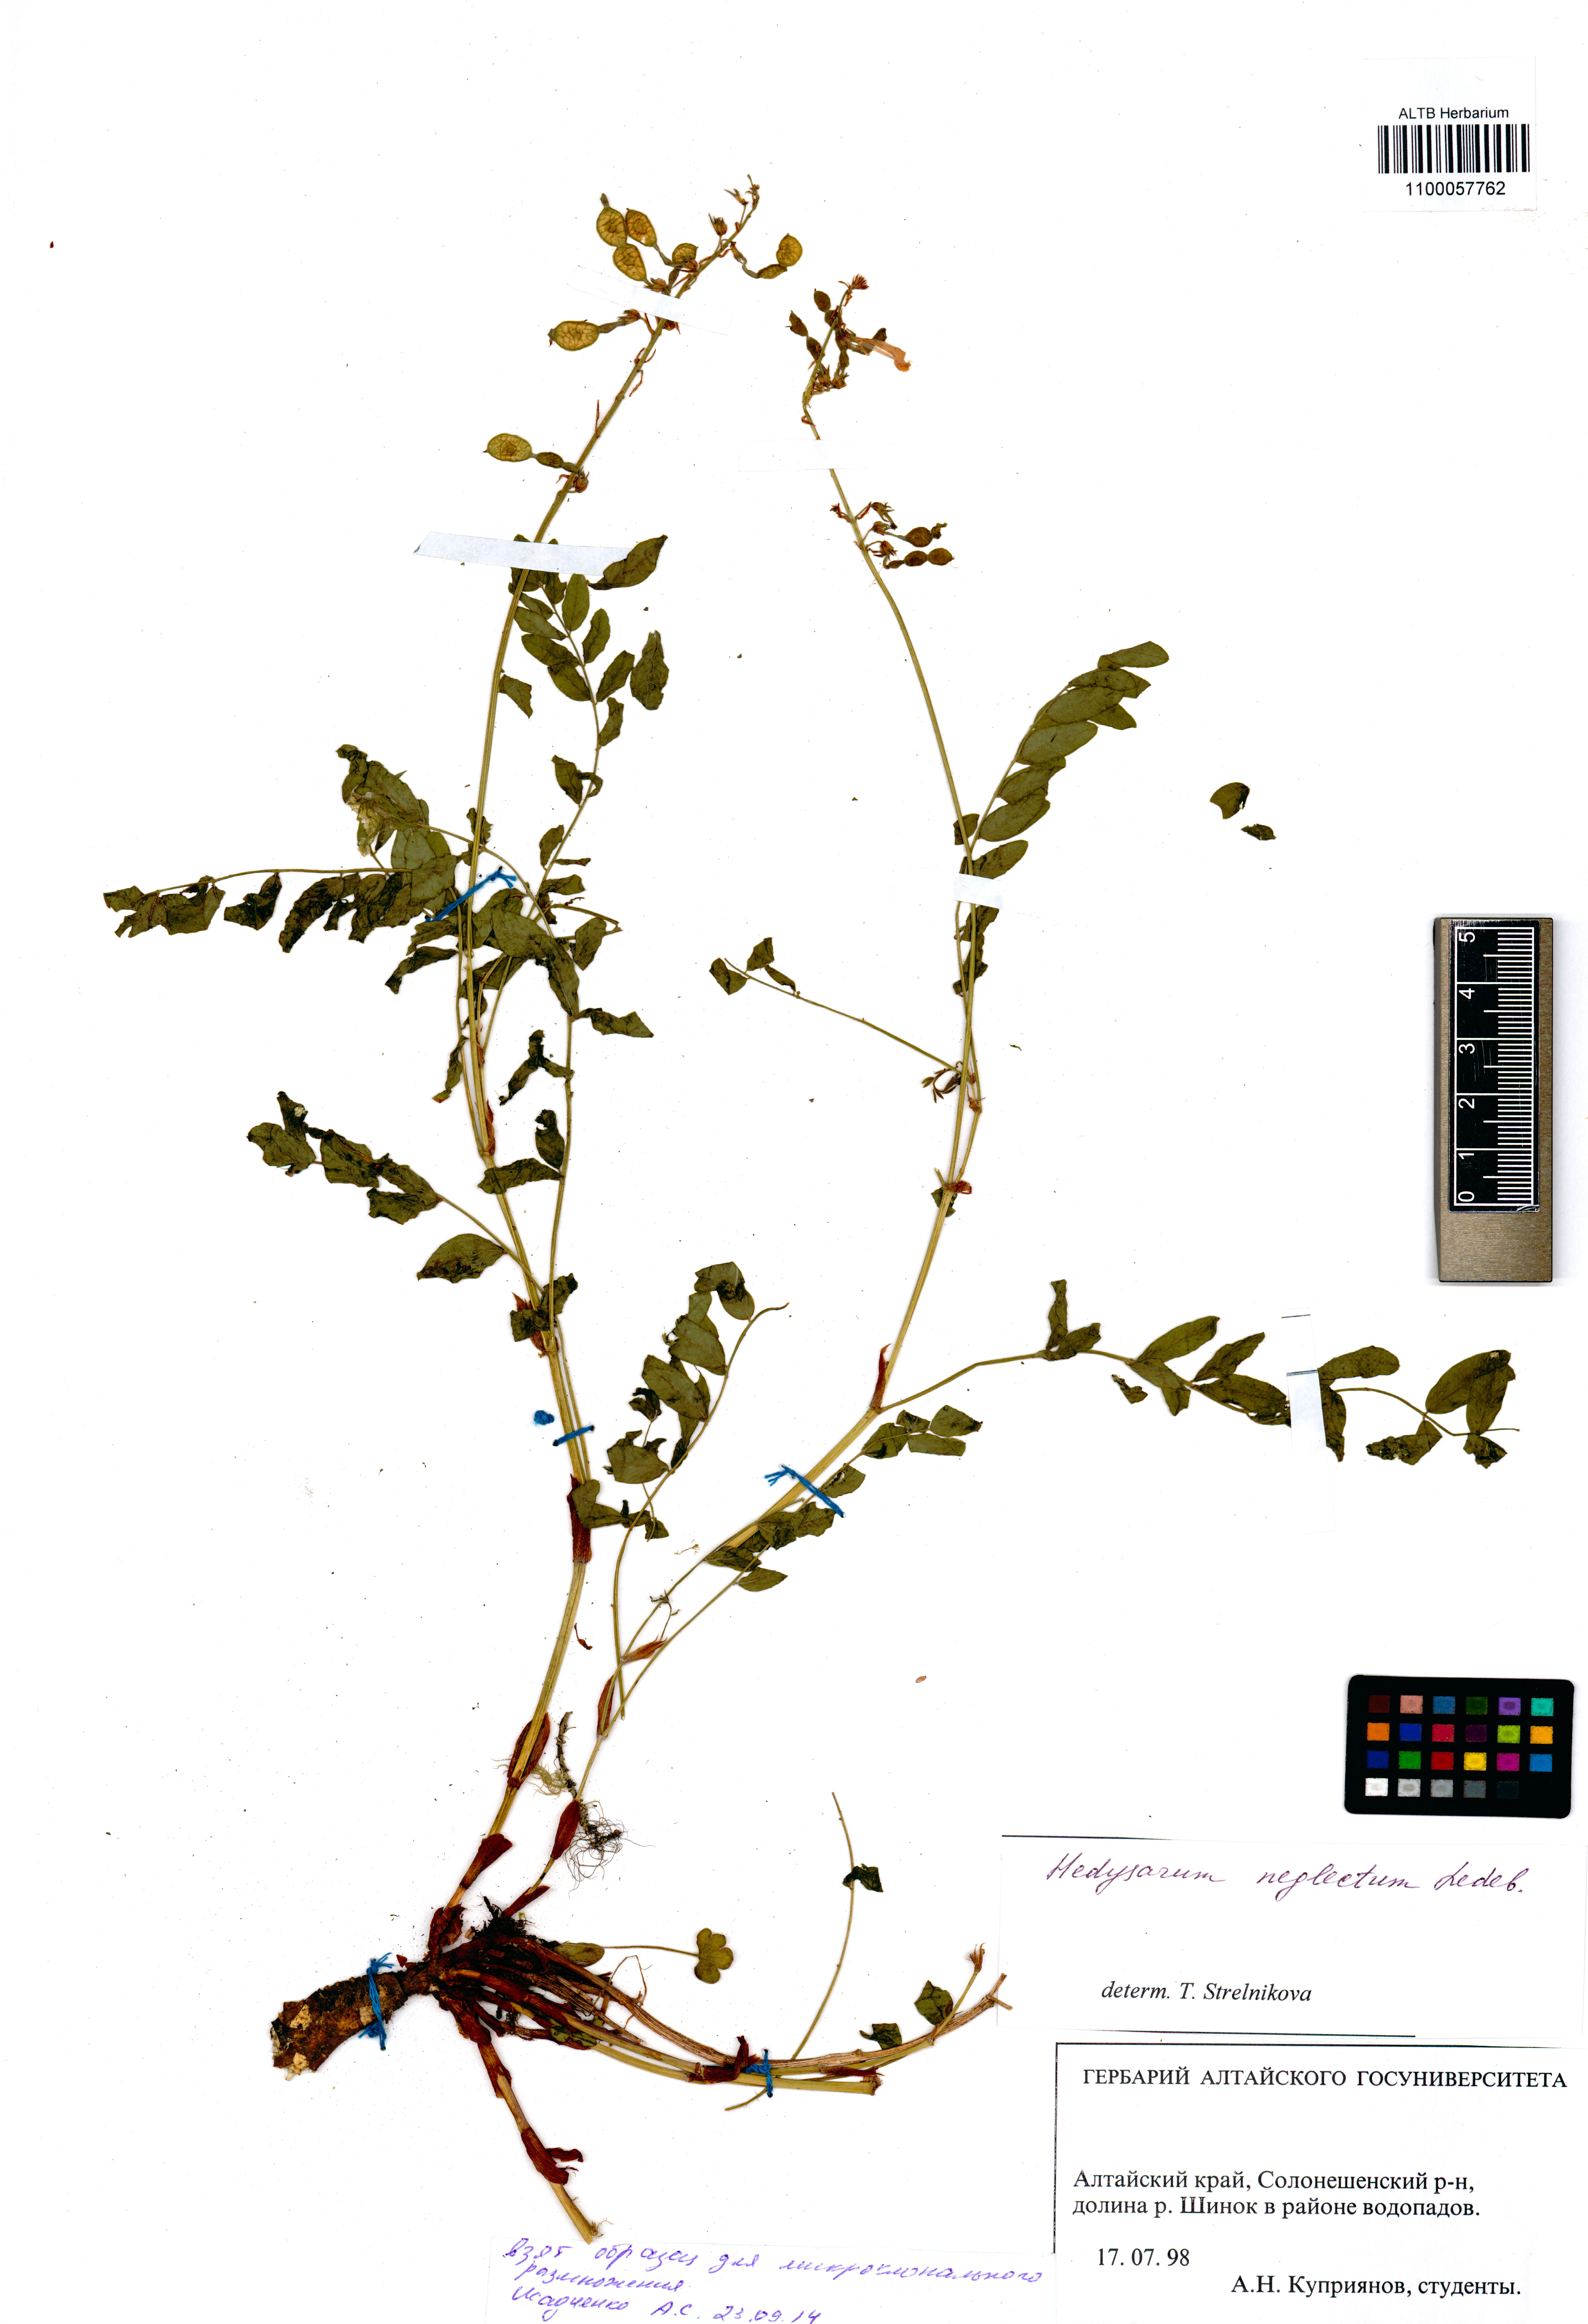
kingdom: Plantae
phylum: Tracheophyta
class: Magnoliopsida
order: Fabales
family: Fabaceae
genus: Hedysarum
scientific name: Hedysarum neglectum
